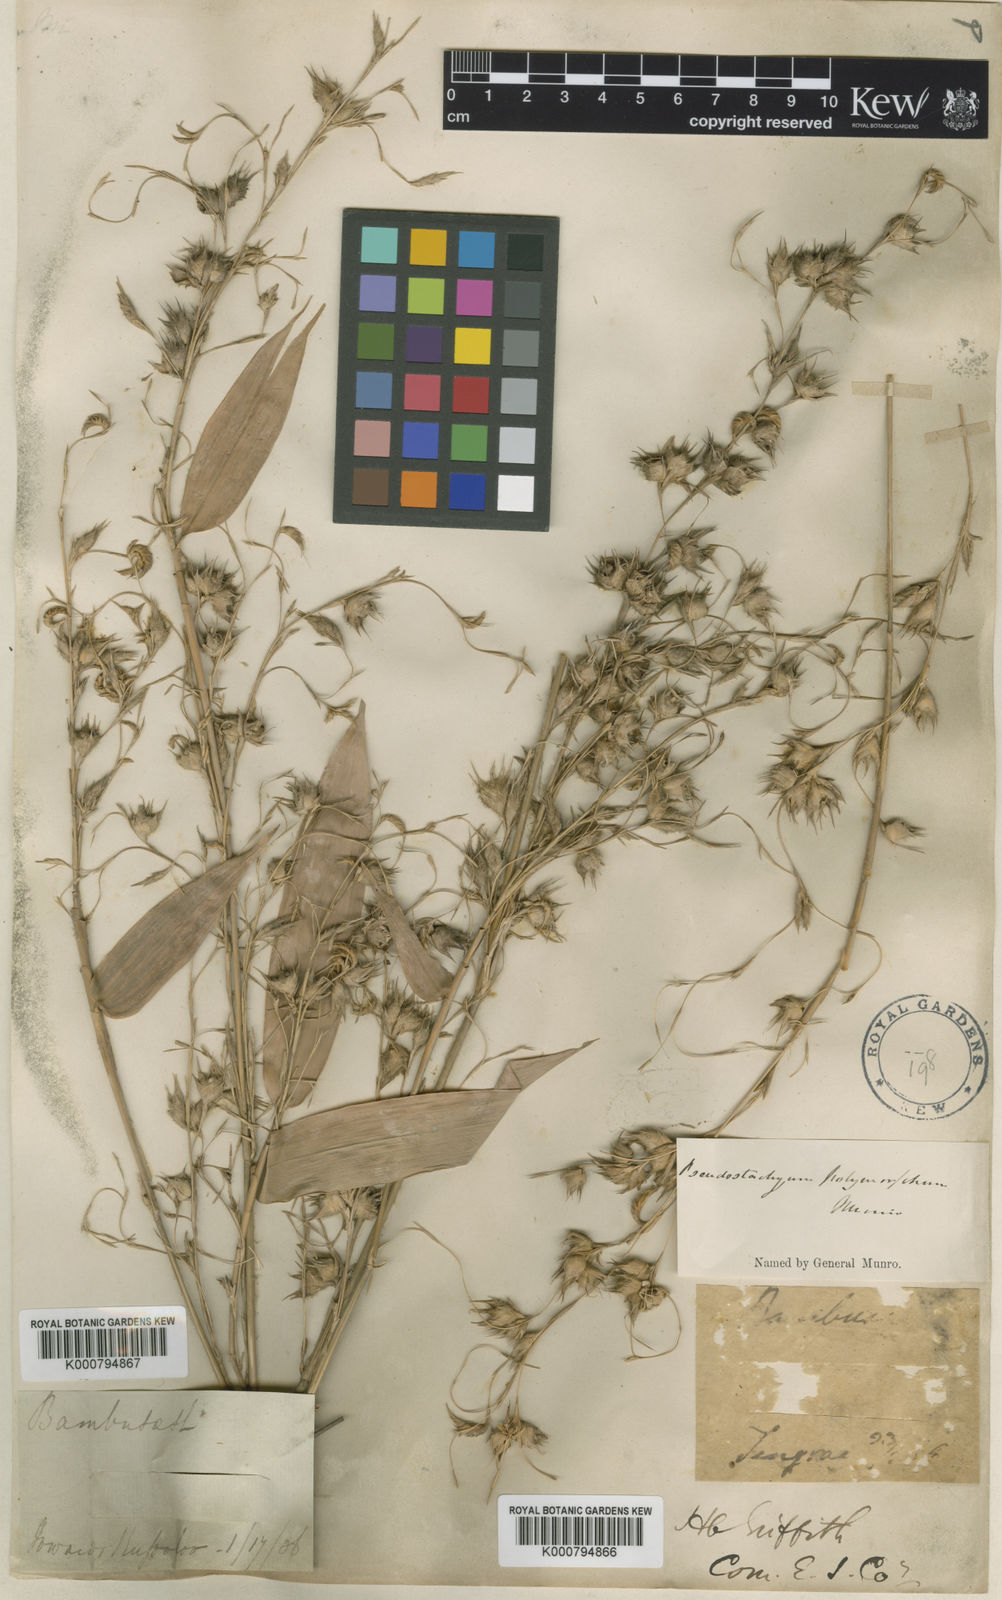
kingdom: Plantae
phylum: Tracheophyta
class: Liliopsida
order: Poales
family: Poaceae
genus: Pseudostachyum
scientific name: Pseudostachyum polymorphum
